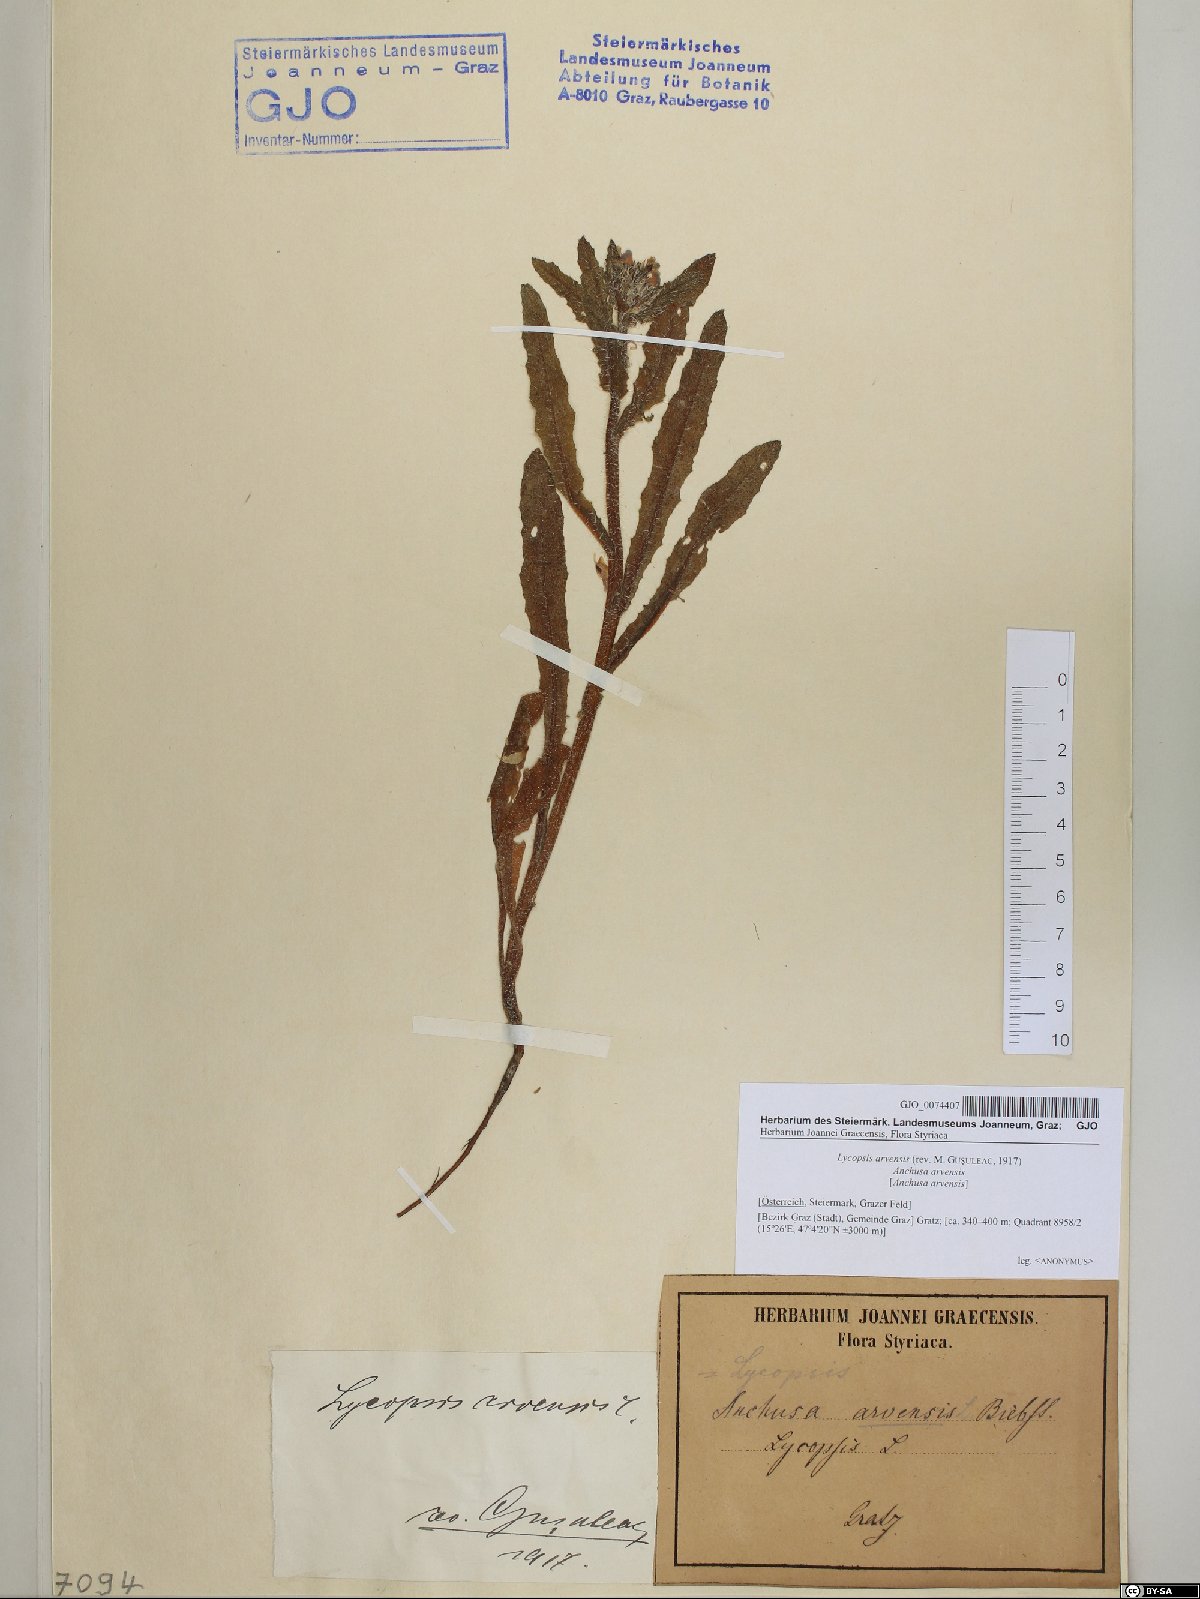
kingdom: Plantae
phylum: Tracheophyta
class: Magnoliopsida
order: Boraginales
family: Boraginaceae
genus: Lycopsis
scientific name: Lycopsis arvensis
